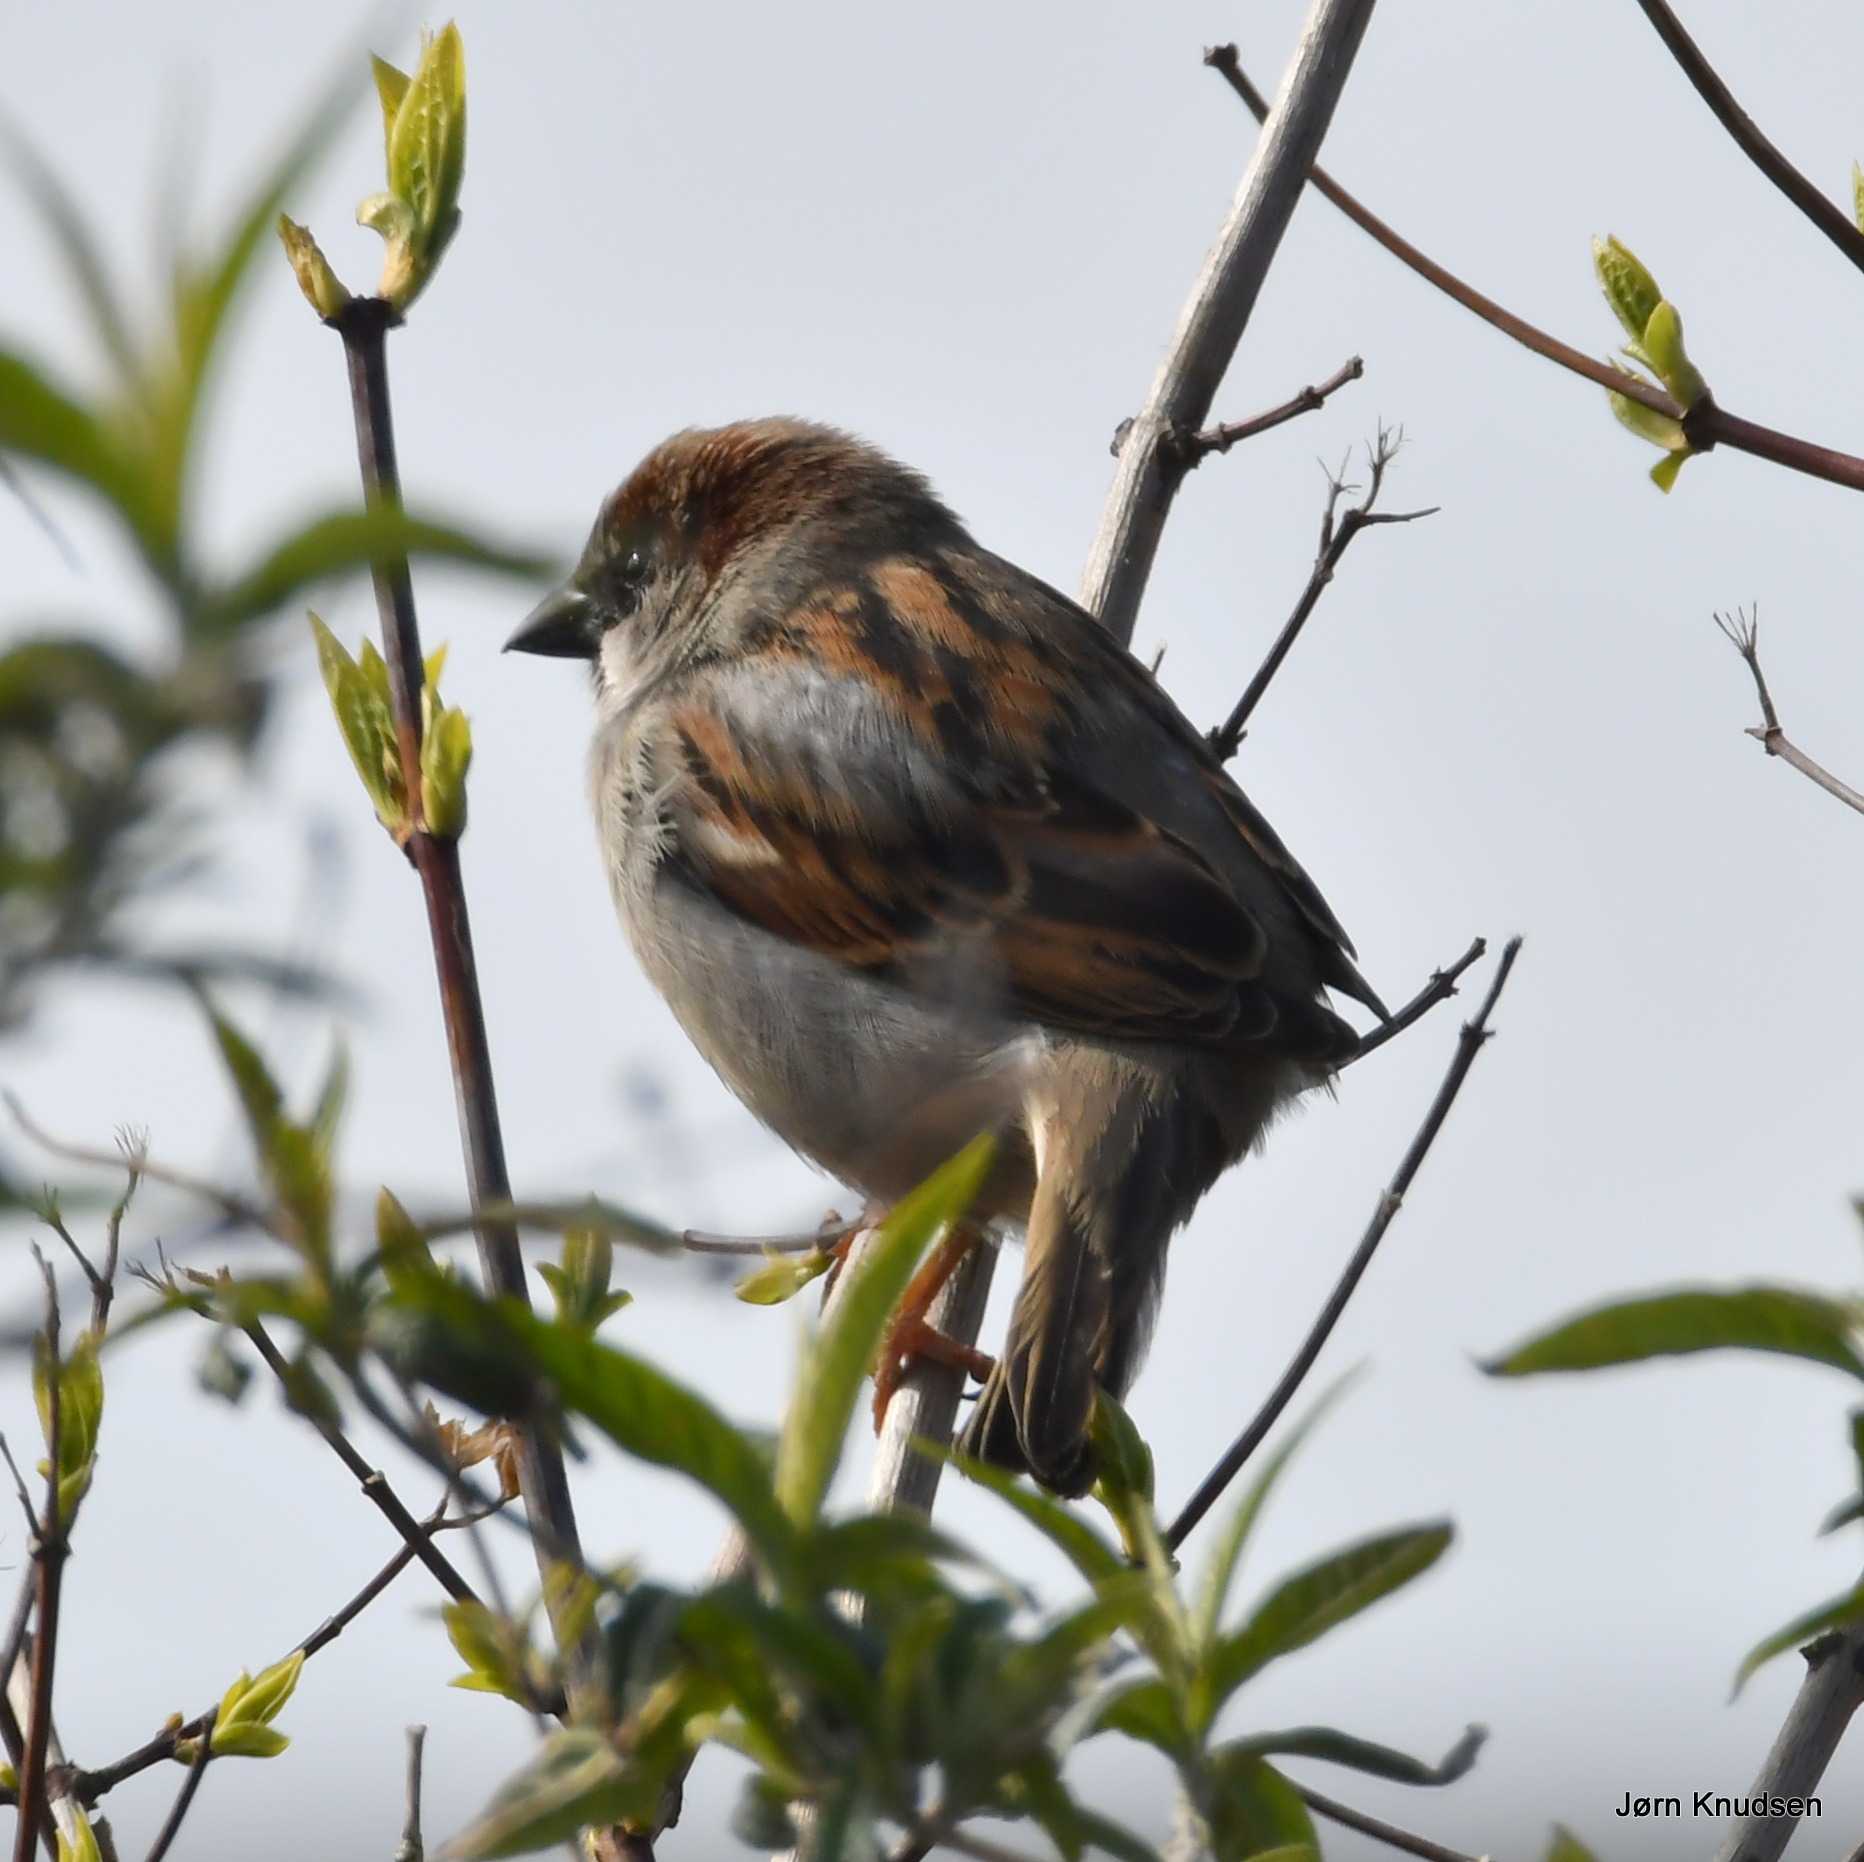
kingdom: Animalia
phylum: Chordata
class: Aves
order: Passeriformes
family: Passeridae
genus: Passer
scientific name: Passer domesticus
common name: Gråspurv
